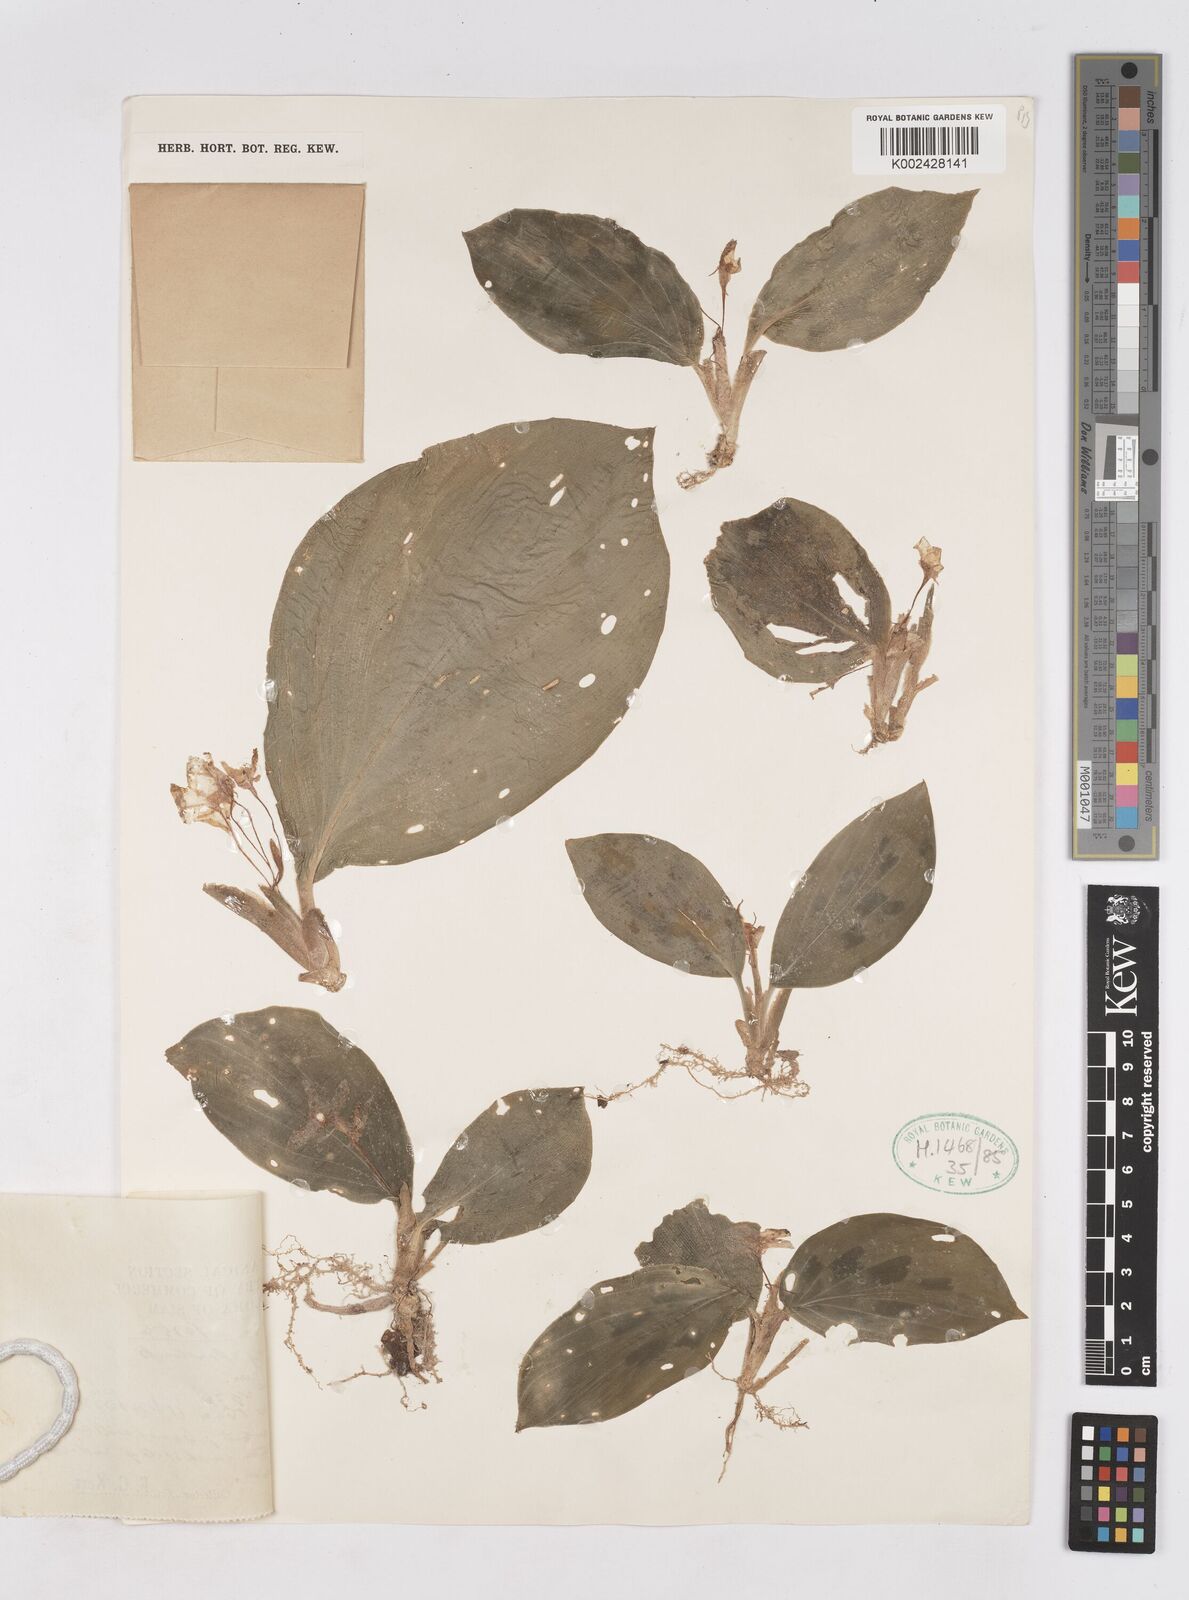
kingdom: Plantae
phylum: Tracheophyta
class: Liliopsida
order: Zingiberales
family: Zingiberaceae
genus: Kaempferia
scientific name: Kaempferia
